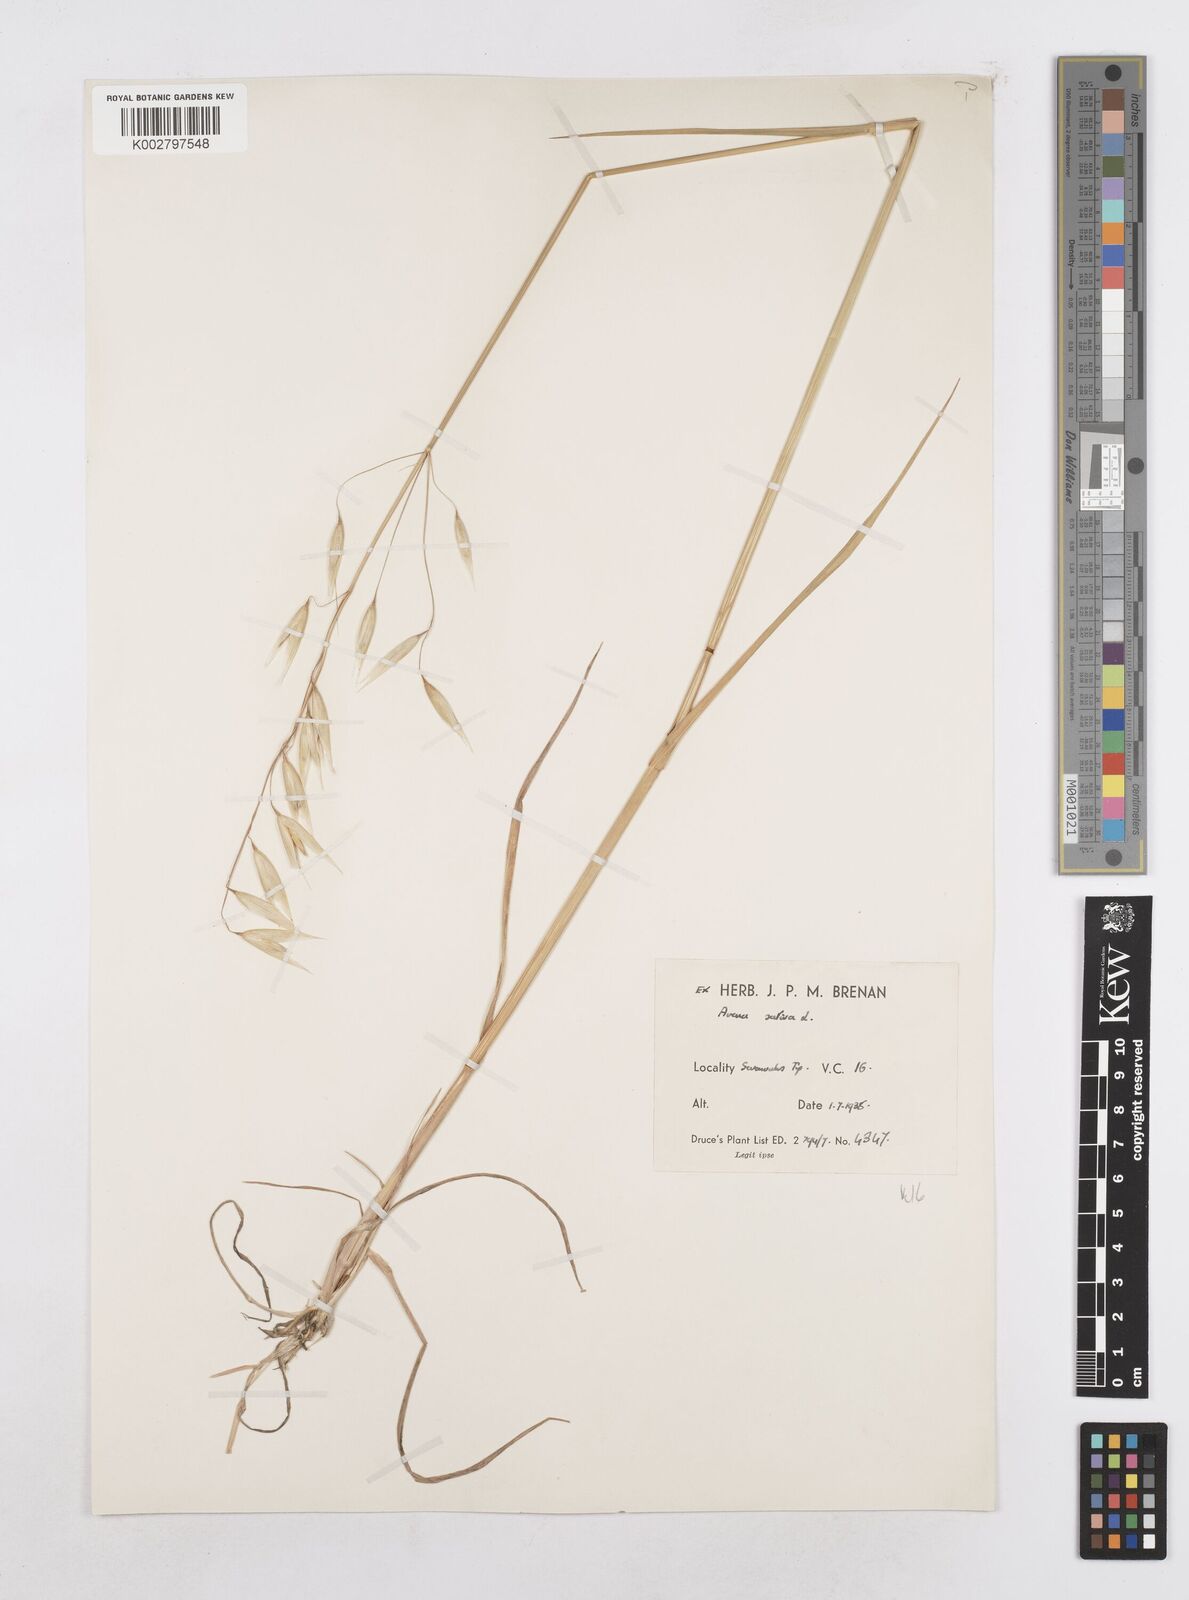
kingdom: Plantae
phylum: Tracheophyta
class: Liliopsida
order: Poales
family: Poaceae
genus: Avena
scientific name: Avena sativa
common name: Oat
